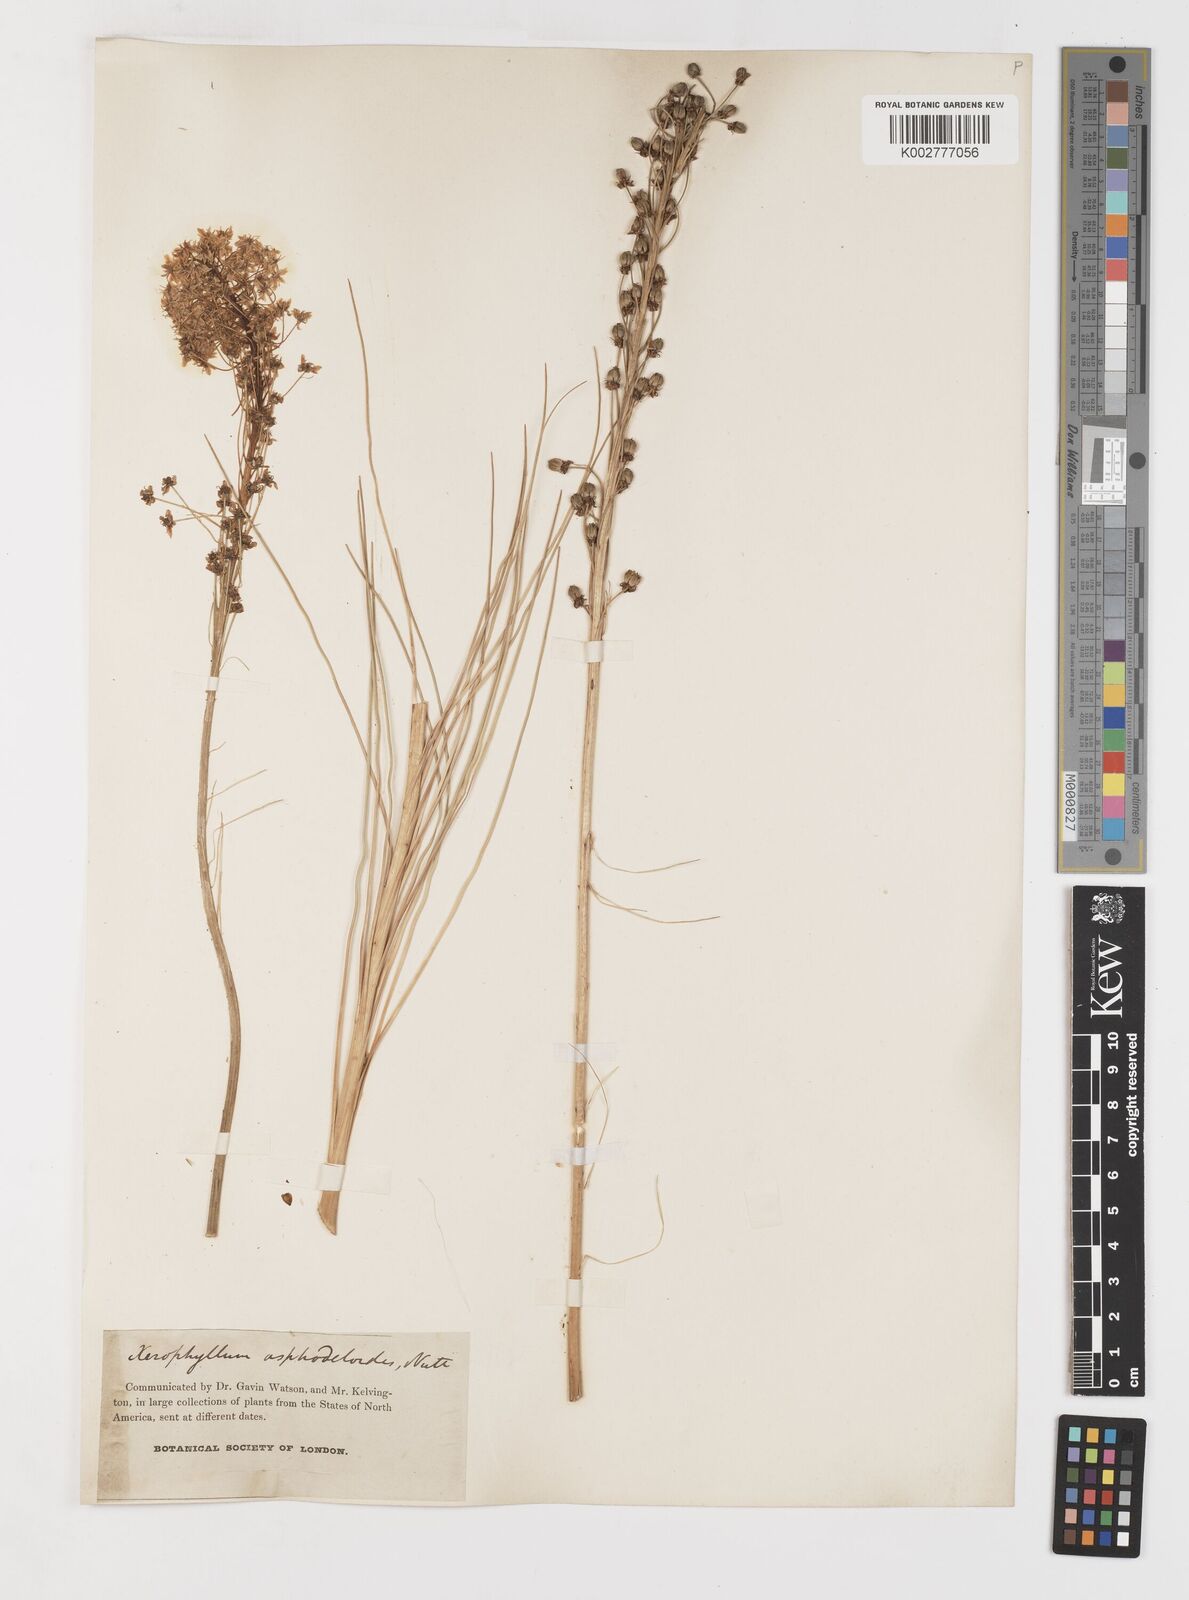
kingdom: Plantae
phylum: Tracheophyta
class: Liliopsida
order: Liliales
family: Melanthiaceae
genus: Xerophyllum
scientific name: Xerophyllum asphodeloides
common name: Mountain-asphodel
